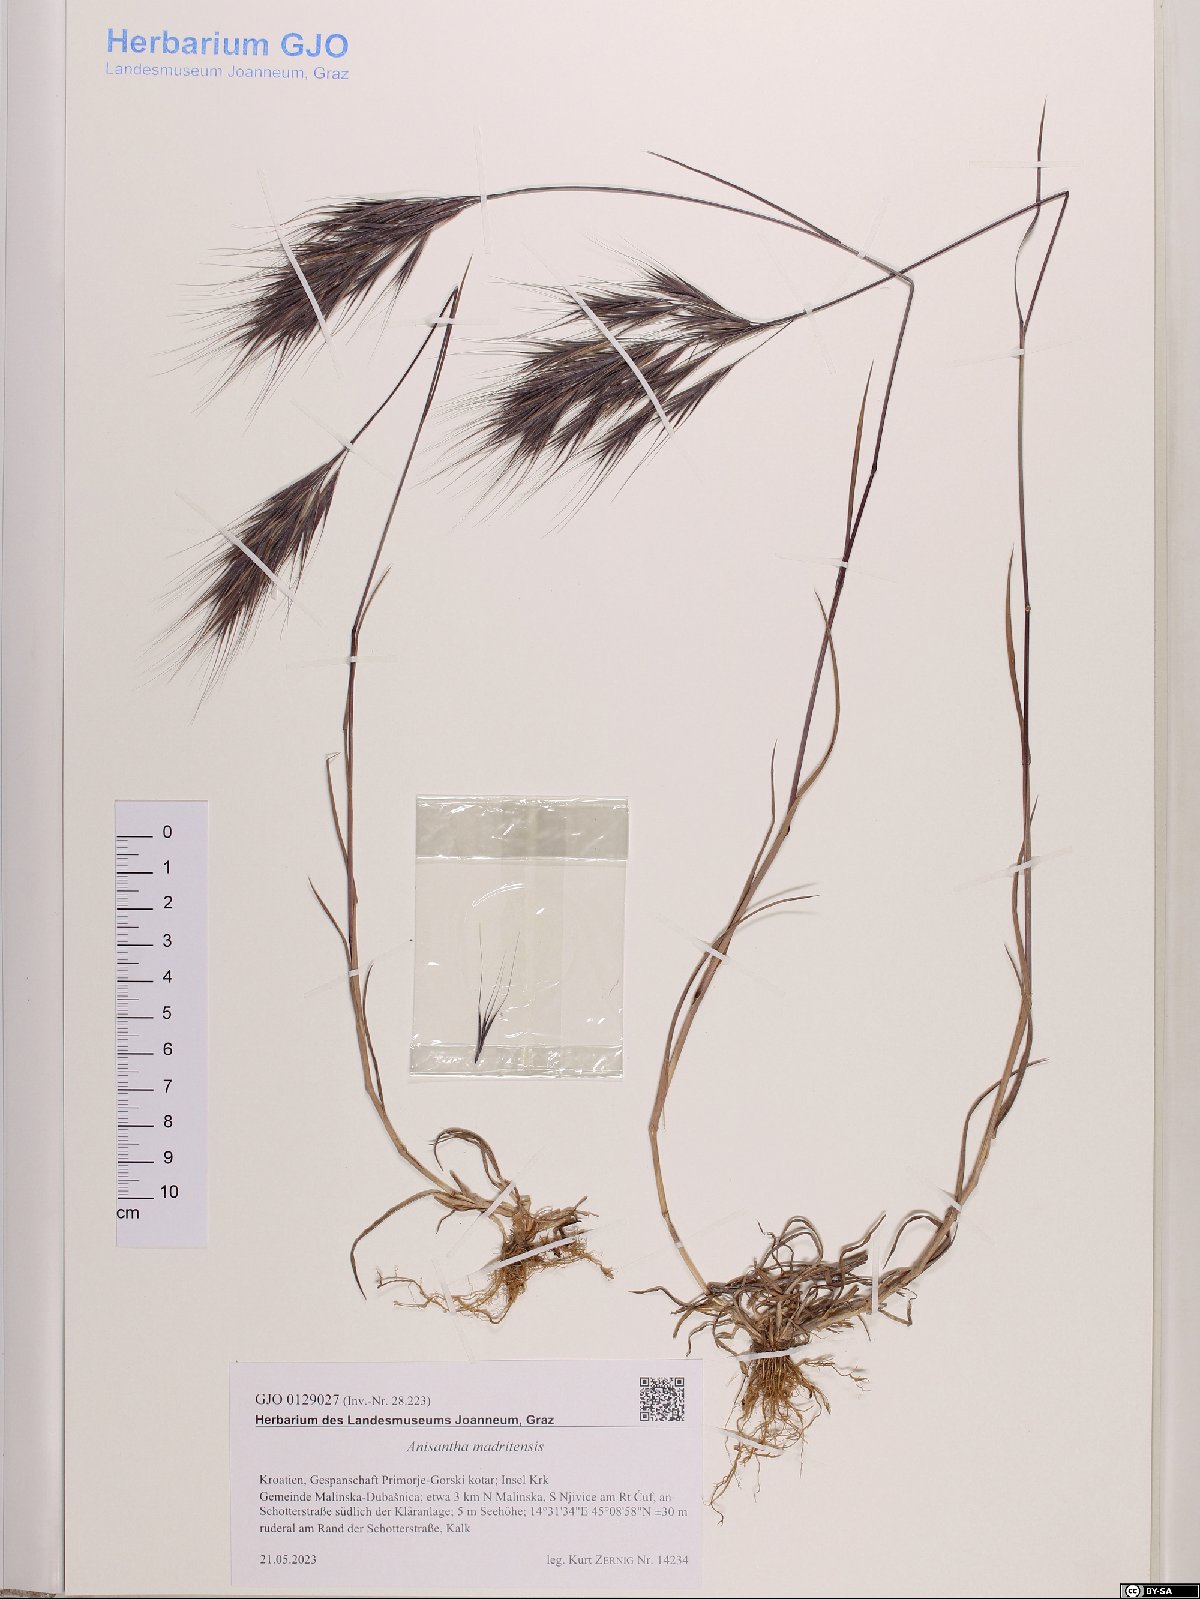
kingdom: Plantae
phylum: Tracheophyta
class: Liliopsida
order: Poales
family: Poaceae
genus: Bromus
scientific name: Bromus madritensis
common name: Compact brome
